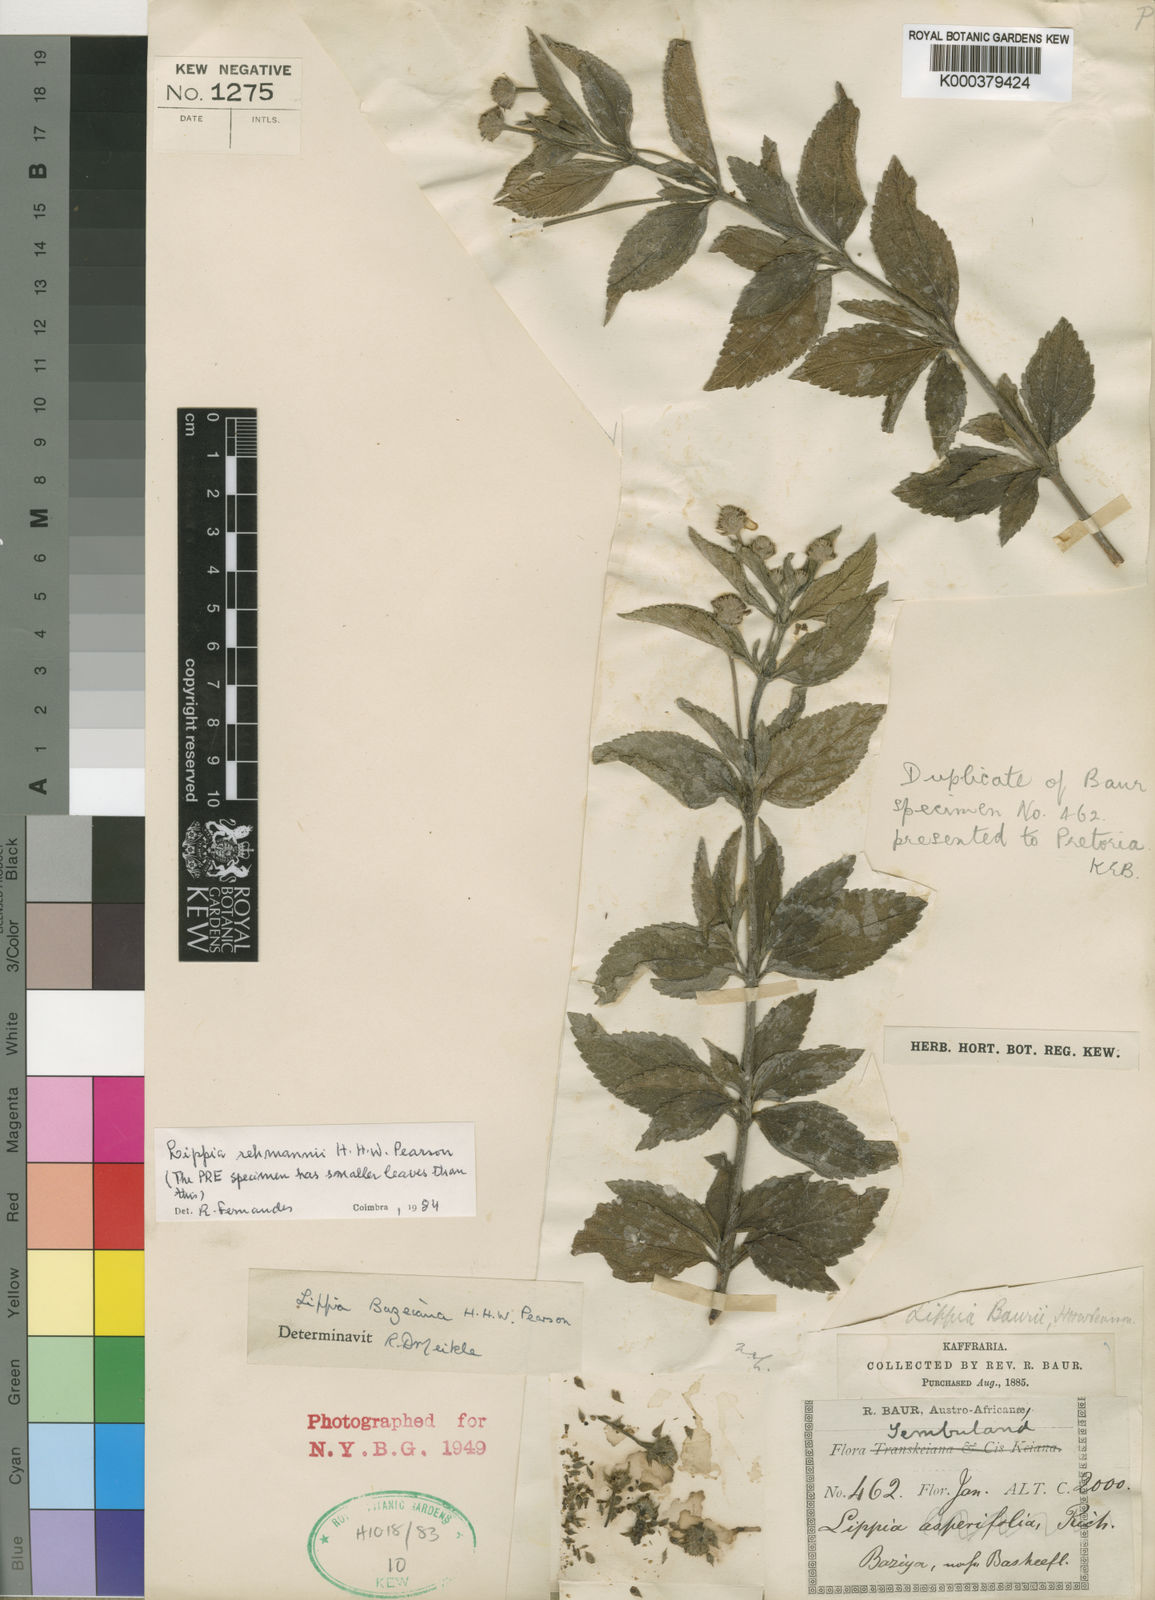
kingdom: Plantae
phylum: Tracheophyta
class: Magnoliopsida
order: Lamiales
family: Verbenaceae
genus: Lippia
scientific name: Lippia rehmannii
